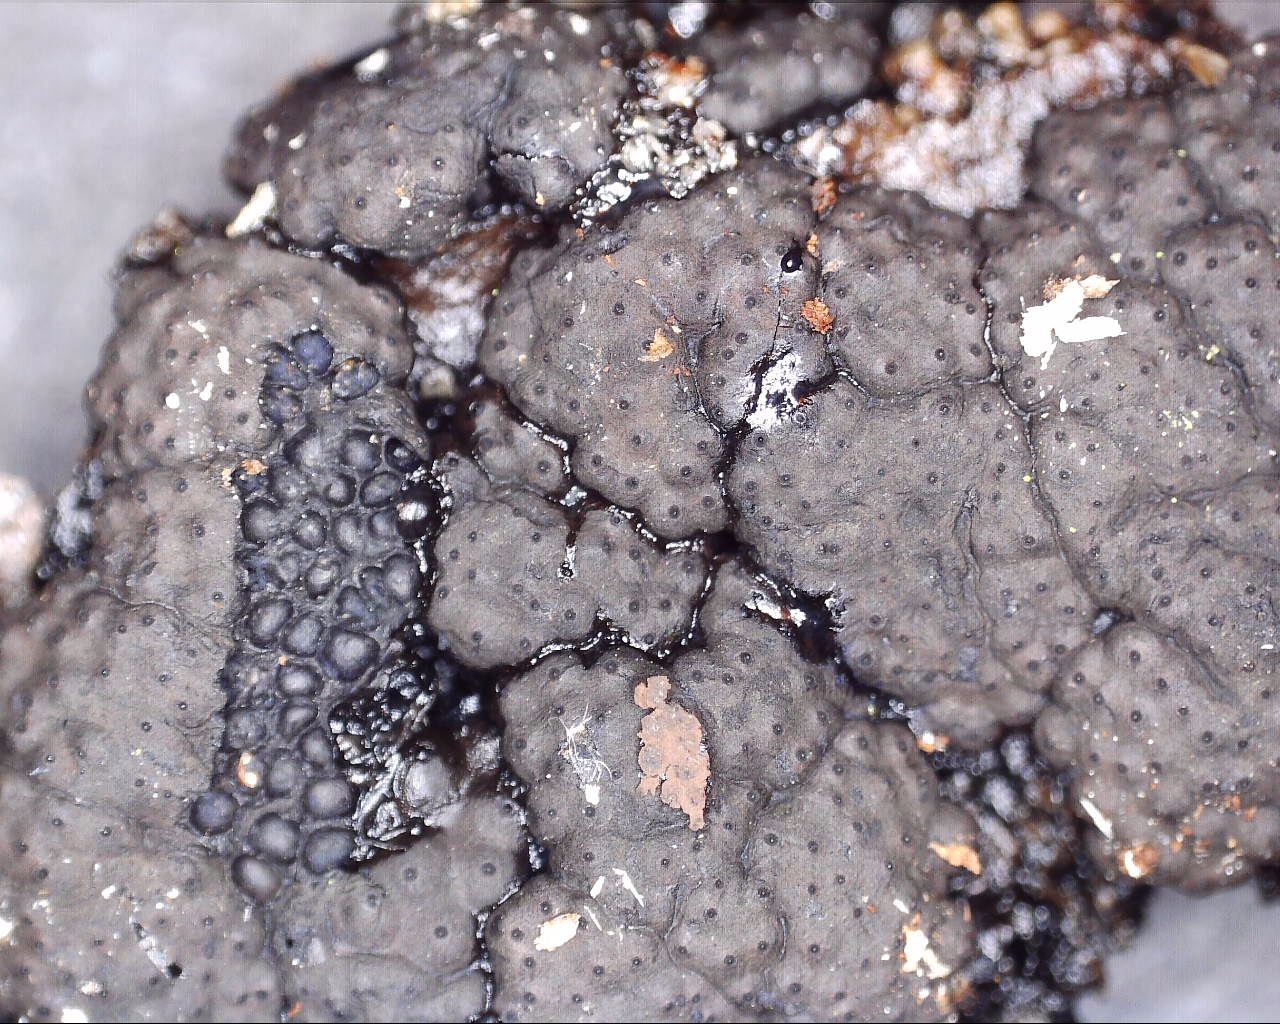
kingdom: Fungi
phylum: Ascomycota
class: Sordariomycetes
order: Xylariales
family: Hypoxylaceae
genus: Jackrogersella
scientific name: Jackrogersella cohaerens
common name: sammenflydende kulbær
